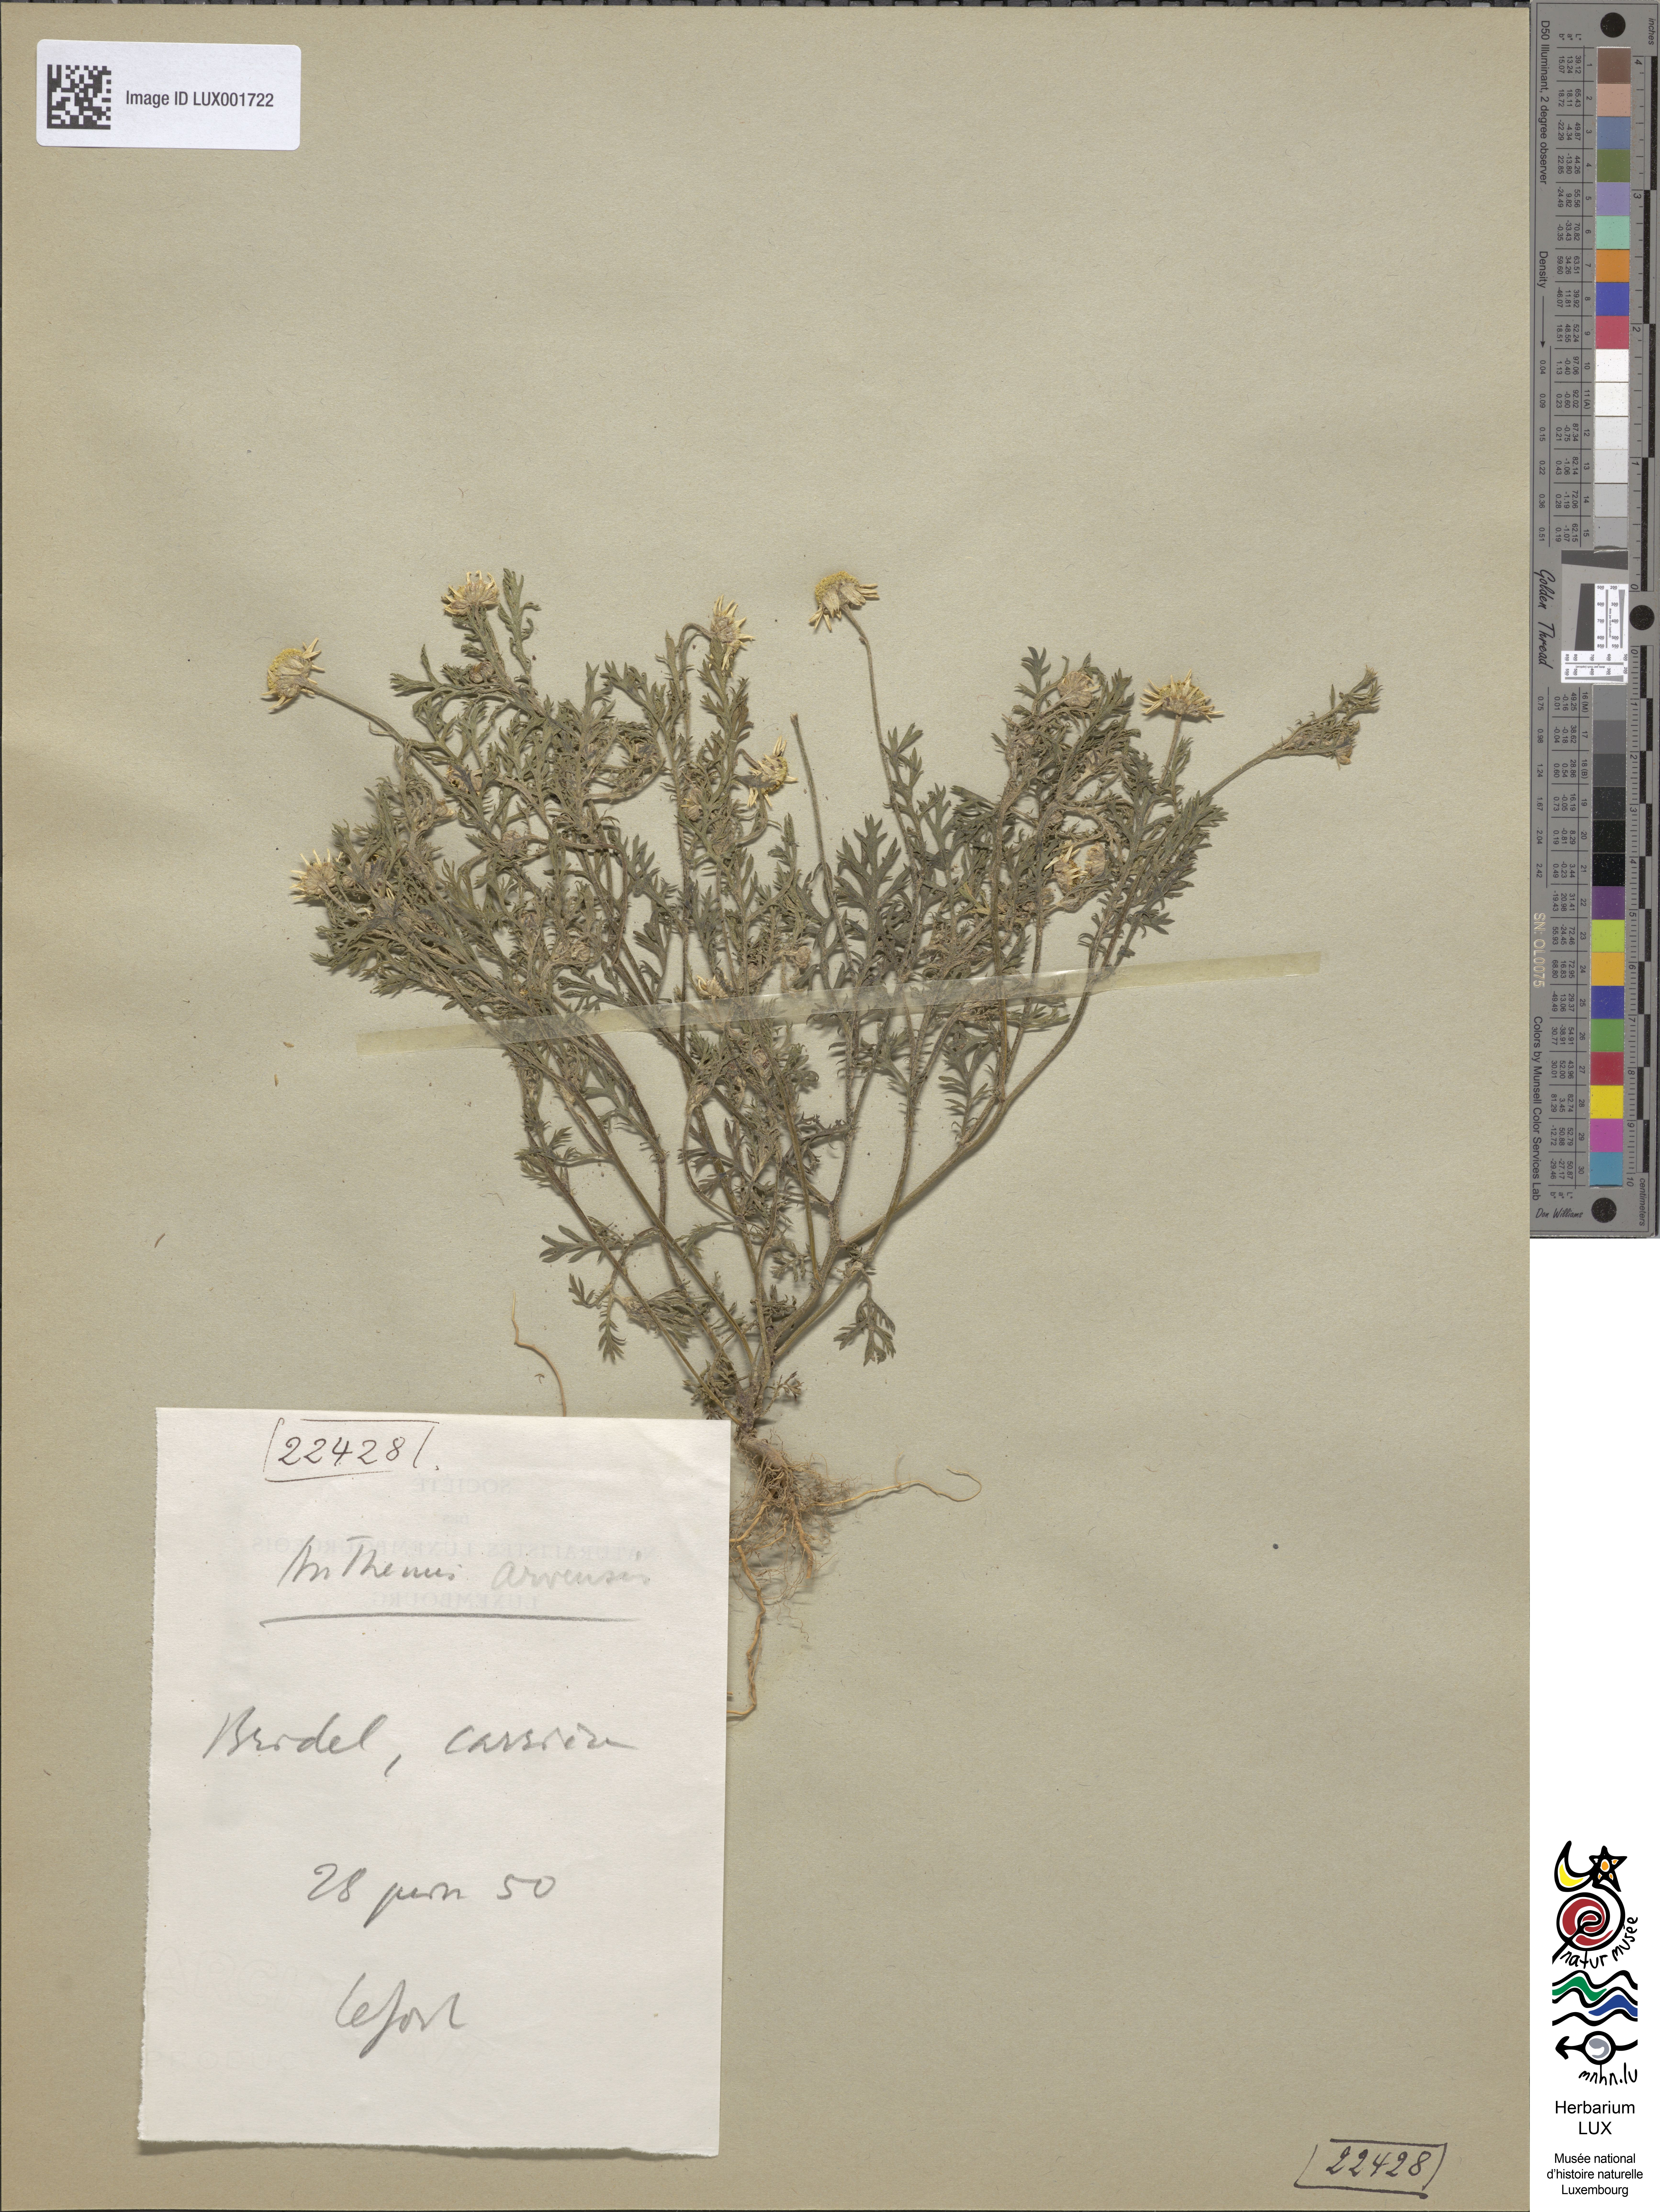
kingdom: Plantae
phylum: Tracheophyta
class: Magnoliopsida
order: Asterales
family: Asteraceae
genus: Anthemis
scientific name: Anthemis arvensis
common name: Corn chamomile
